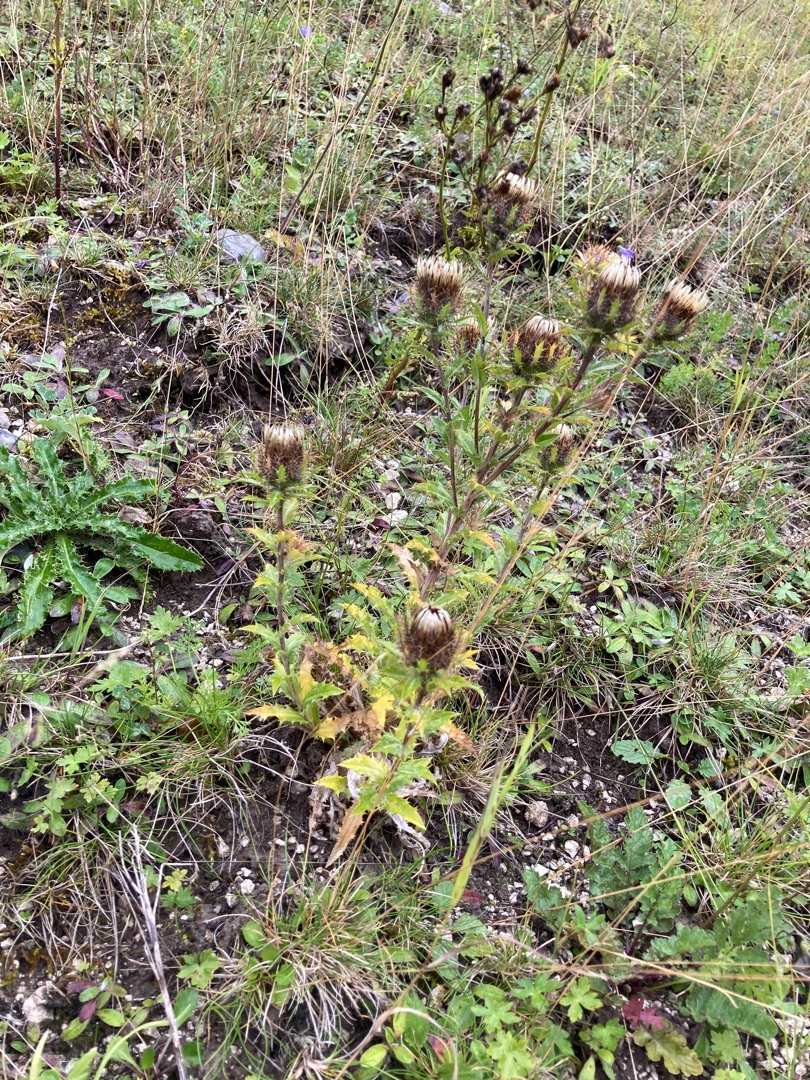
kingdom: Plantae
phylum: Tracheophyta
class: Magnoliopsida
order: Asterales
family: Asteraceae
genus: Carlina
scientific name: Carlina vulgaris
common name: Bakketidsel
